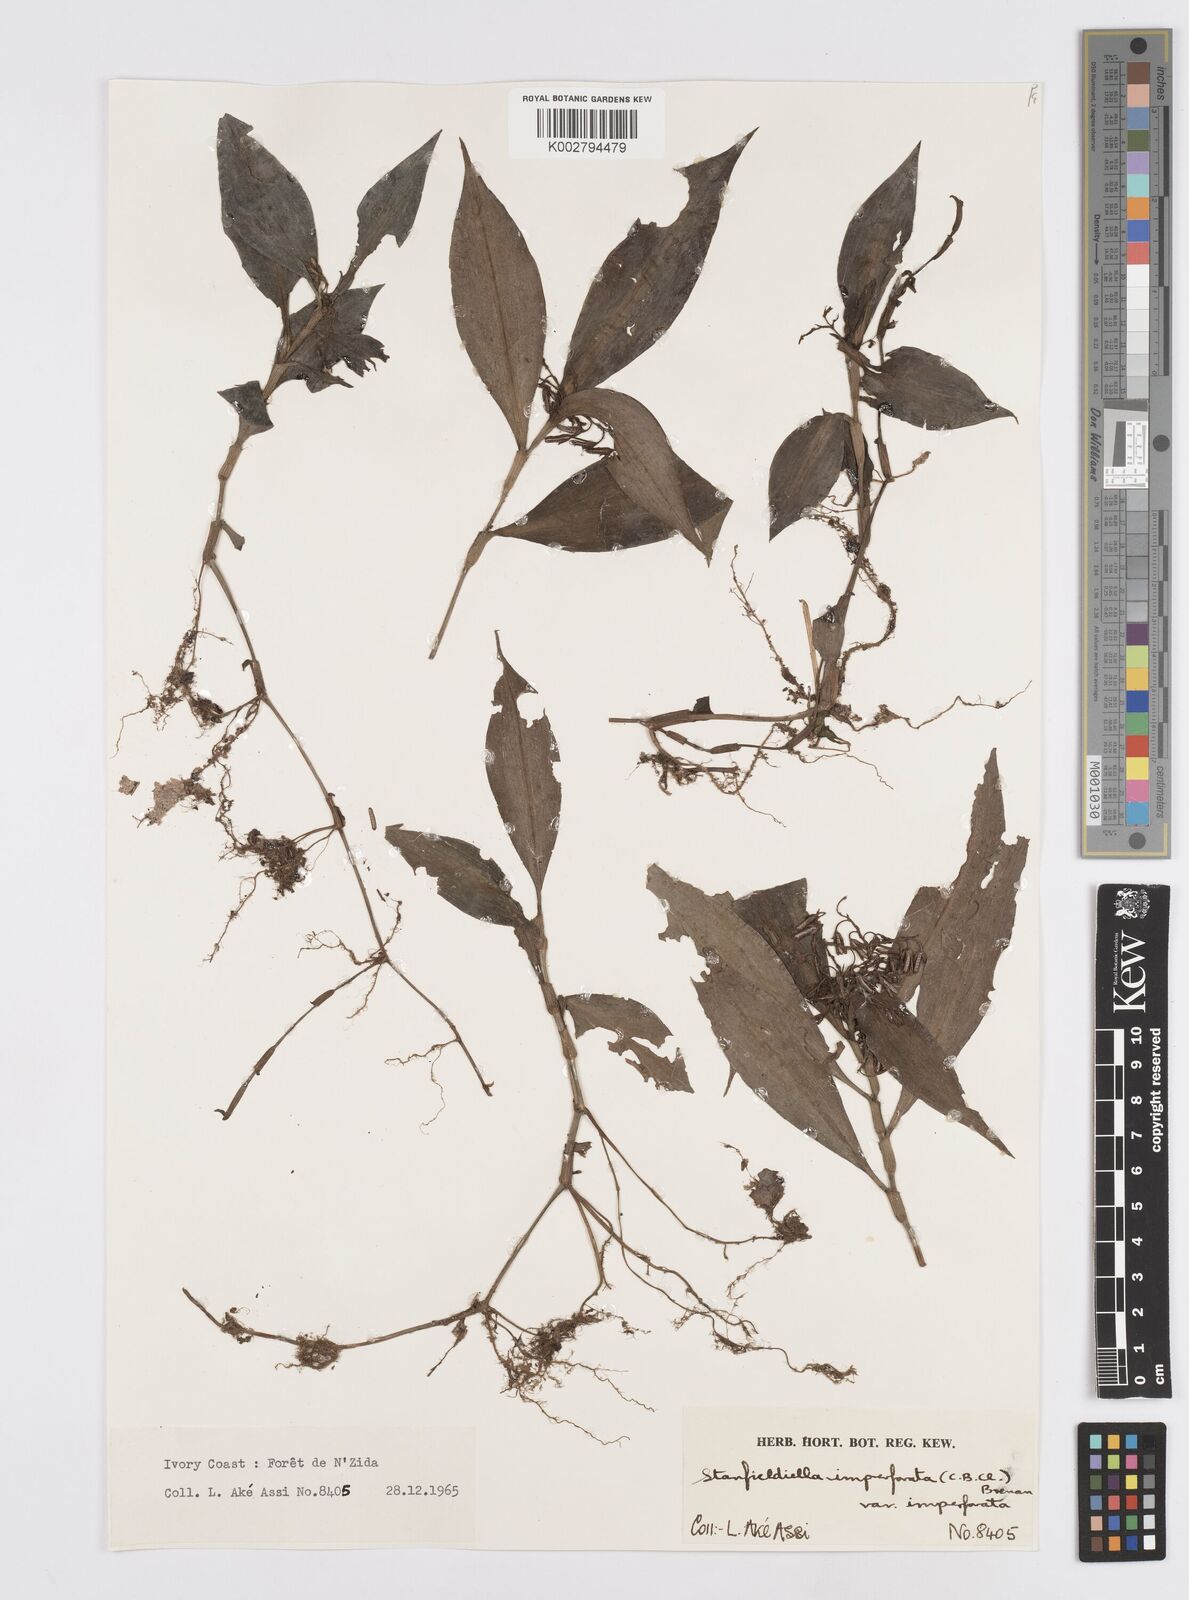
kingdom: Plantae
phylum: Tracheophyta
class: Liliopsida
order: Commelinales
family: Commelinaceae
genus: Stanfieldiella
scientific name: Stanfieldiella imperforata
